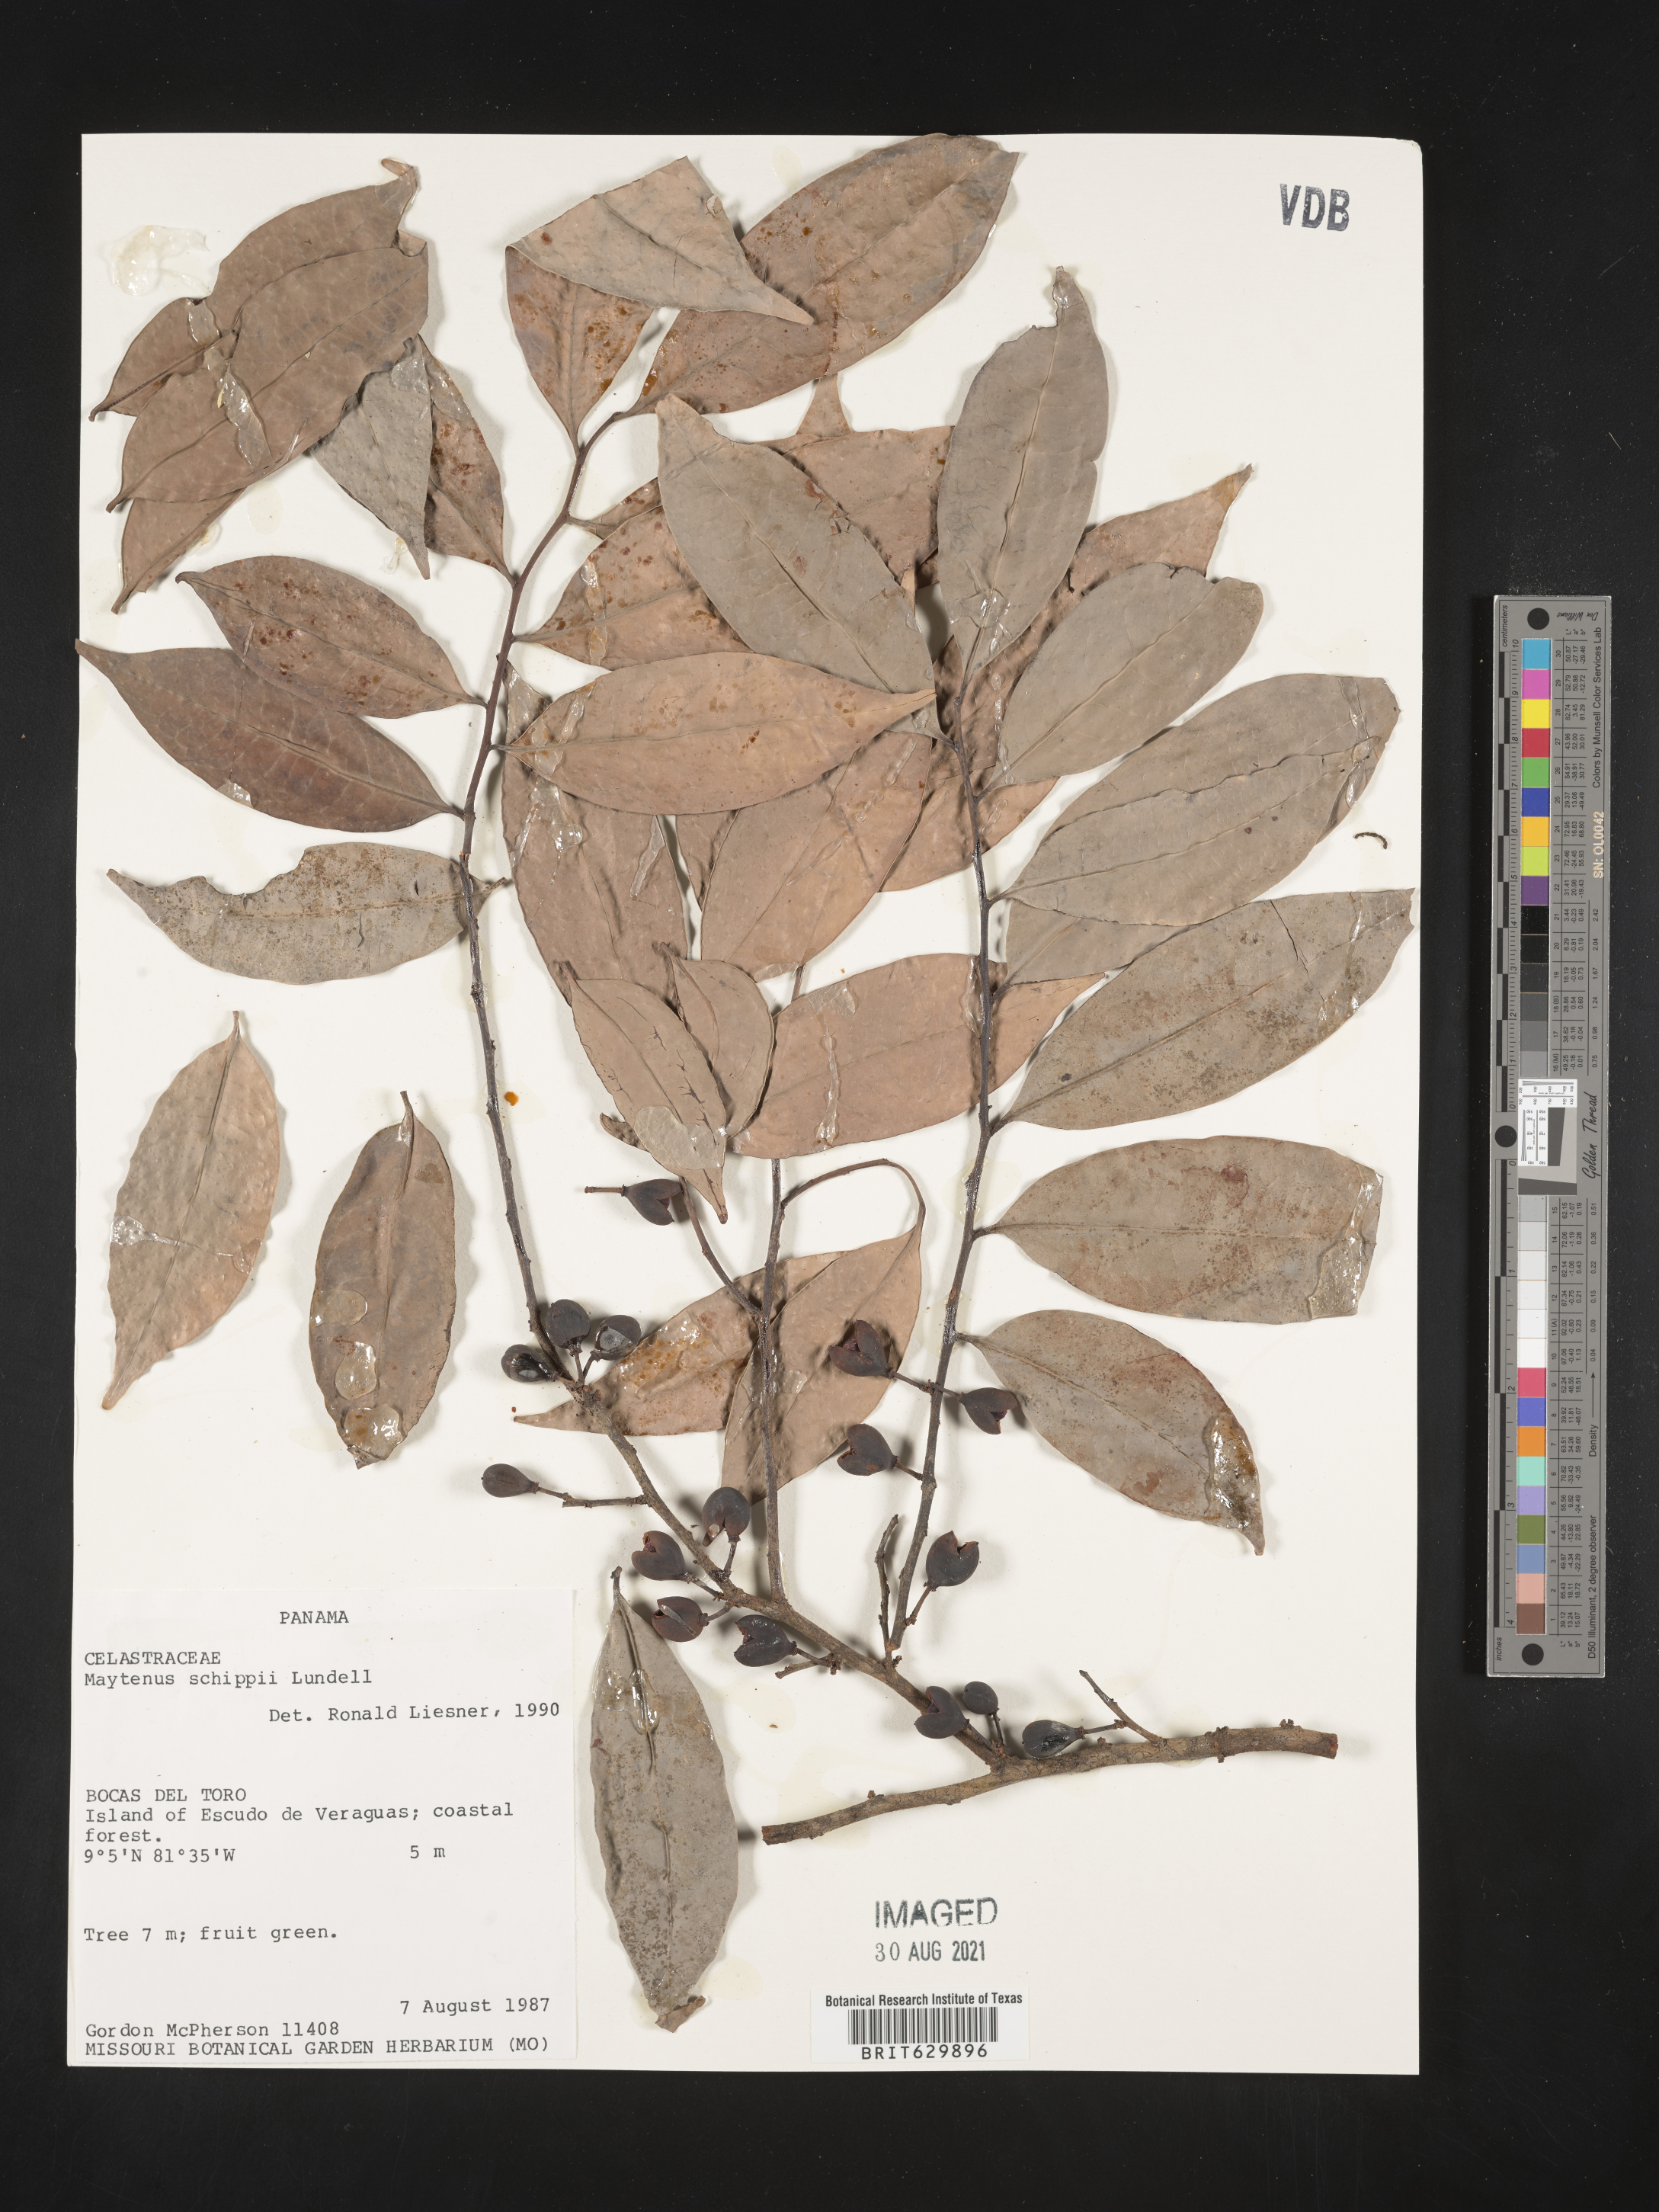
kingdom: Plantae
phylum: Tracheophyta
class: Magnoliopsida
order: Celastrales
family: Celastraceae
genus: Monteverdia
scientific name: Monteverdia schippii
